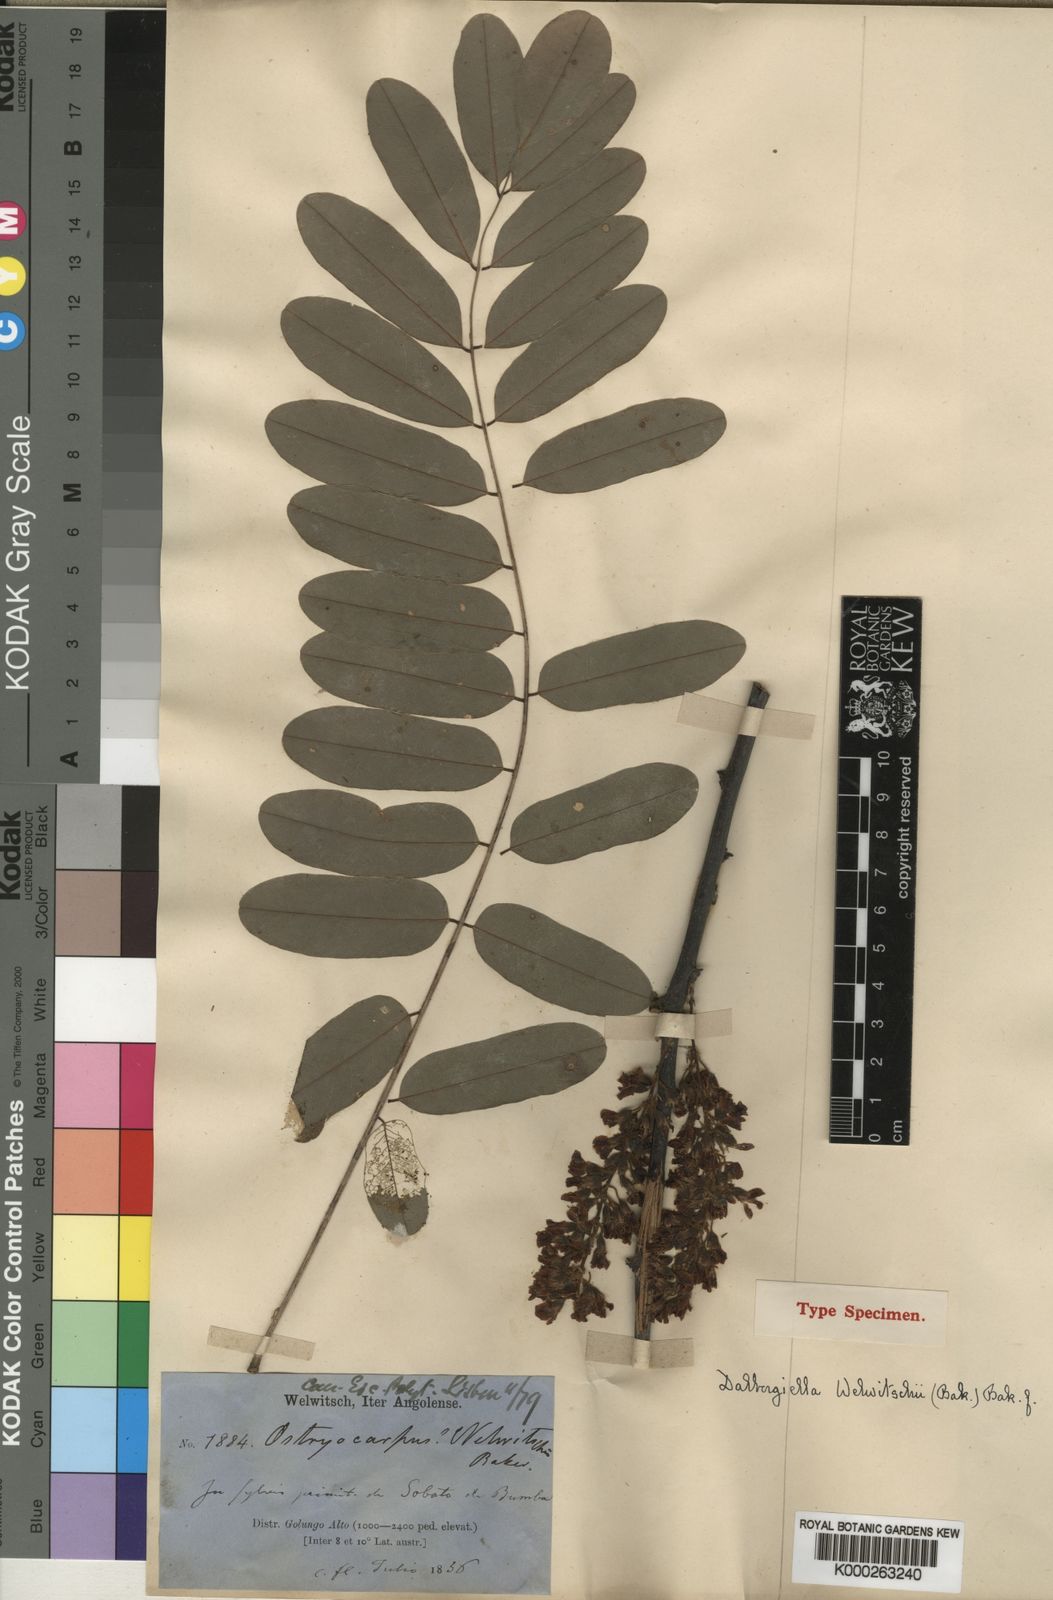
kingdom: Plantae
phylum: Tracheophyta
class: Magnoliopsida
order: Fabales
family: Fabaceae
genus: Dalbergiella
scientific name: Dalbergiella welwitschii
